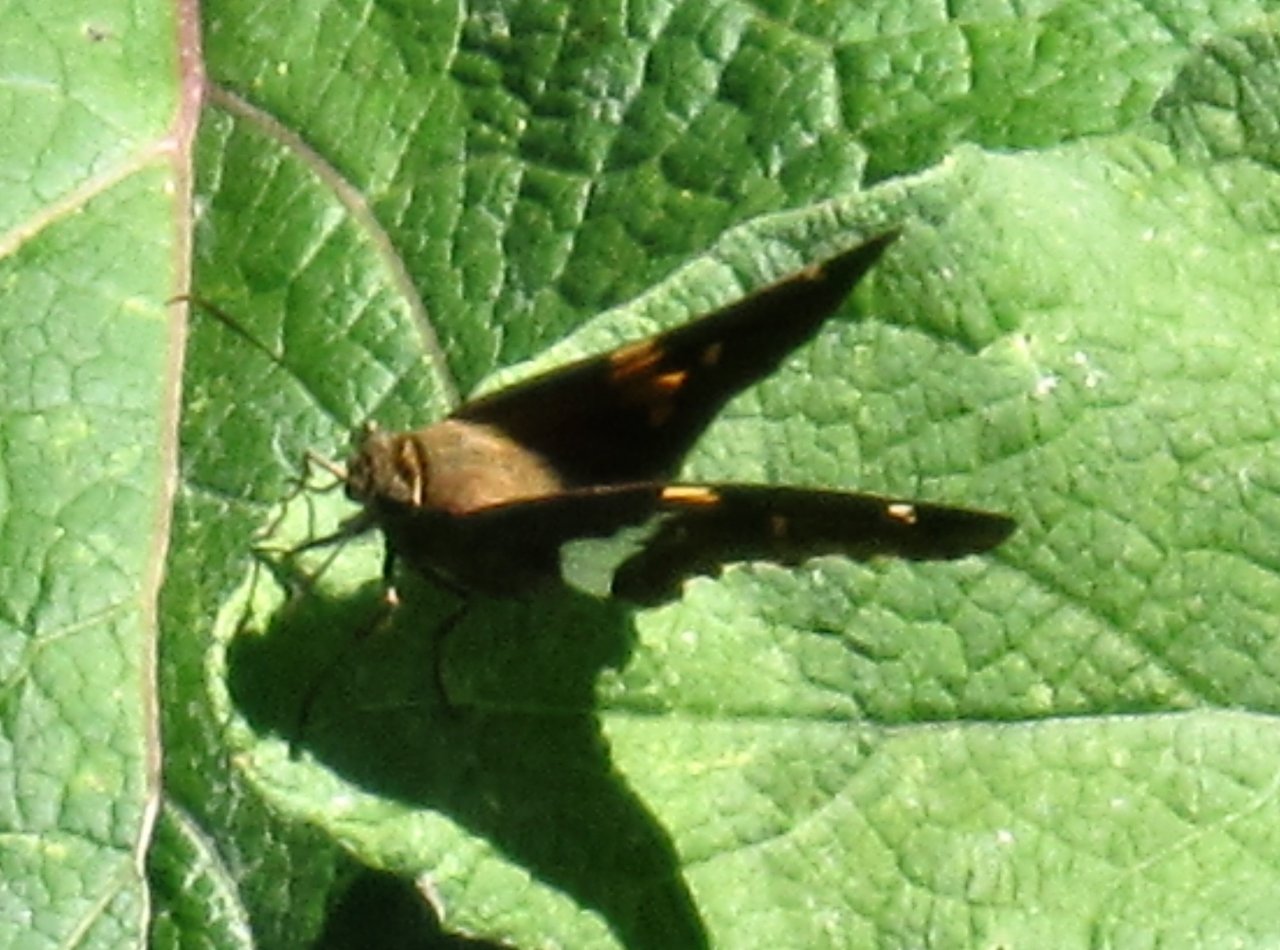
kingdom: Animalia
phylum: Arthropoda
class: Insecta
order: Lepidoptera
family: Hesperiidae
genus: Epargyreus
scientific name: Epargyreus clarus
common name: Silver-spotted Skipper
